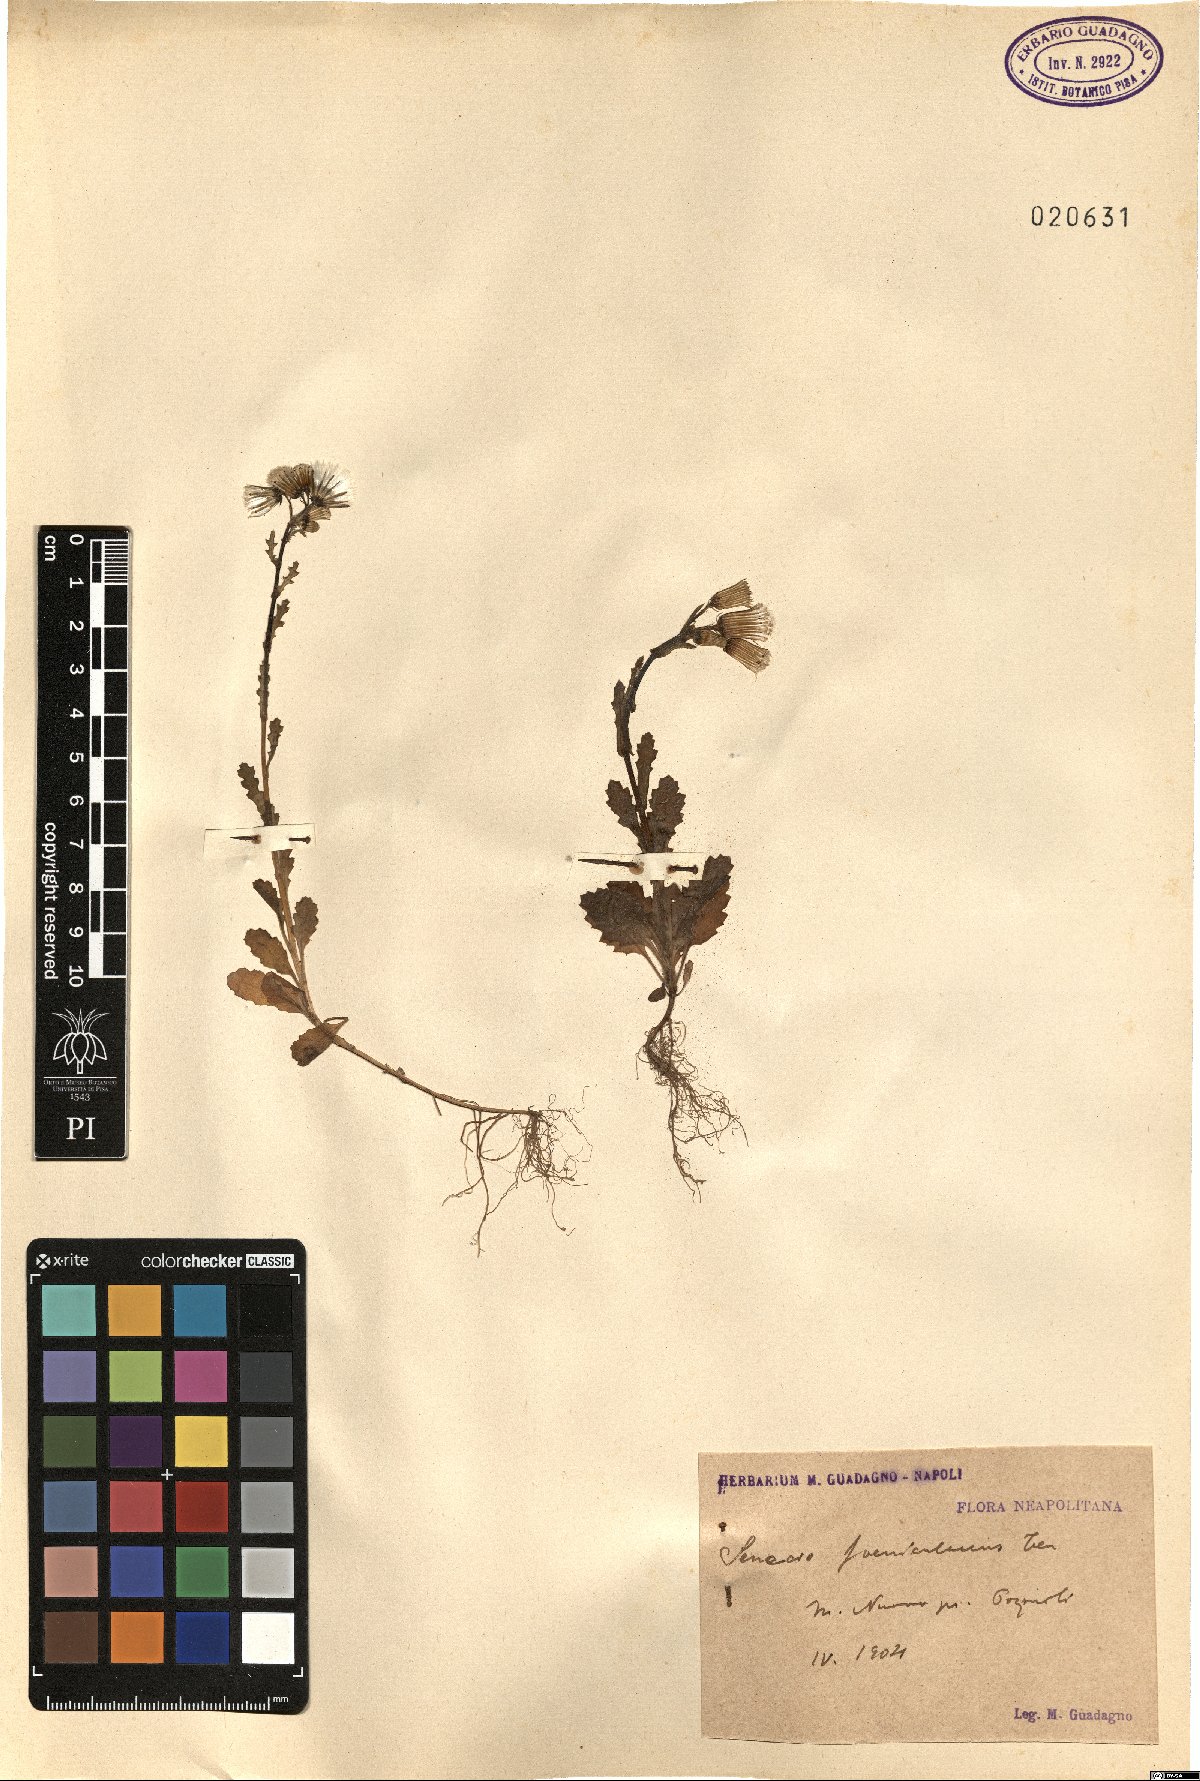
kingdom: Plantae
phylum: Tracheophyta
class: Magnoliopsida
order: Asterales
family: Asteraceae
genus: Senecio
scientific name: Senecio lividus
